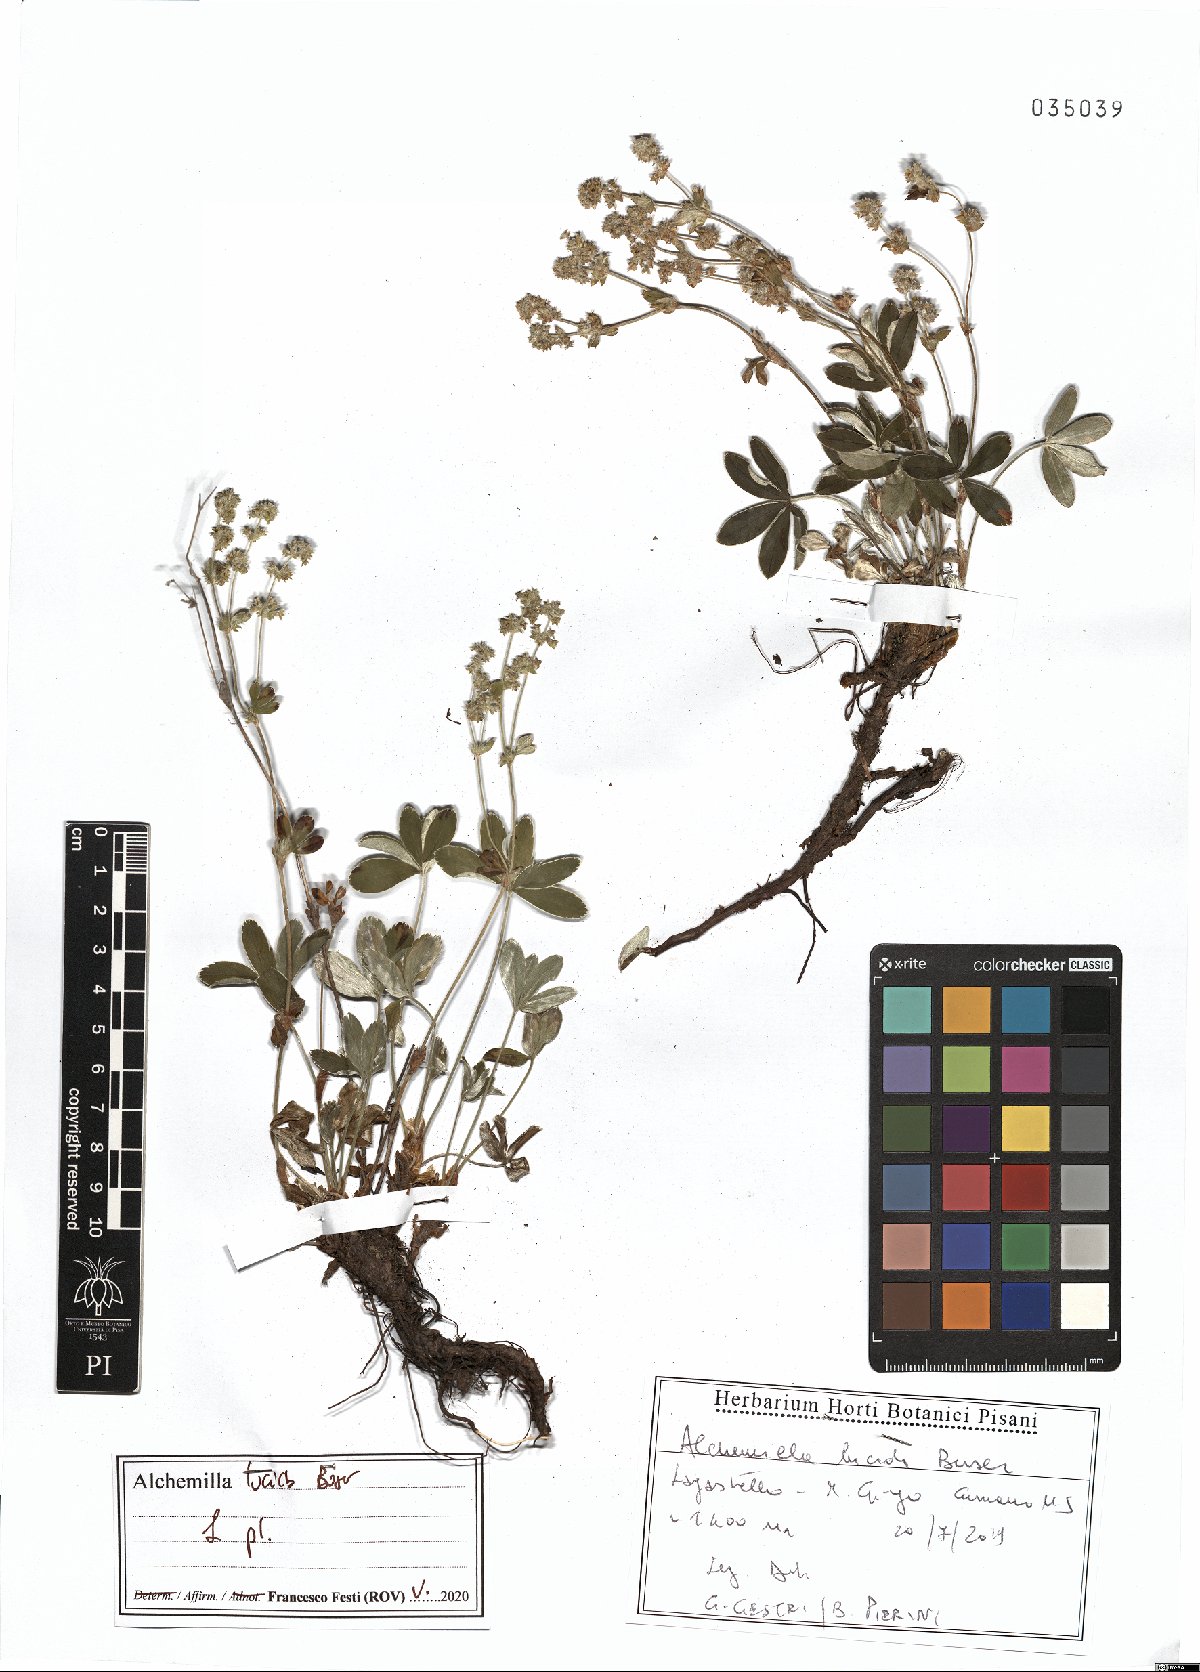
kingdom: Plantae
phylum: Tracheophyta
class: Magnoliopsida
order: Rosales
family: Rosaceae
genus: Alchemilla
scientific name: Alchemilla lucida
